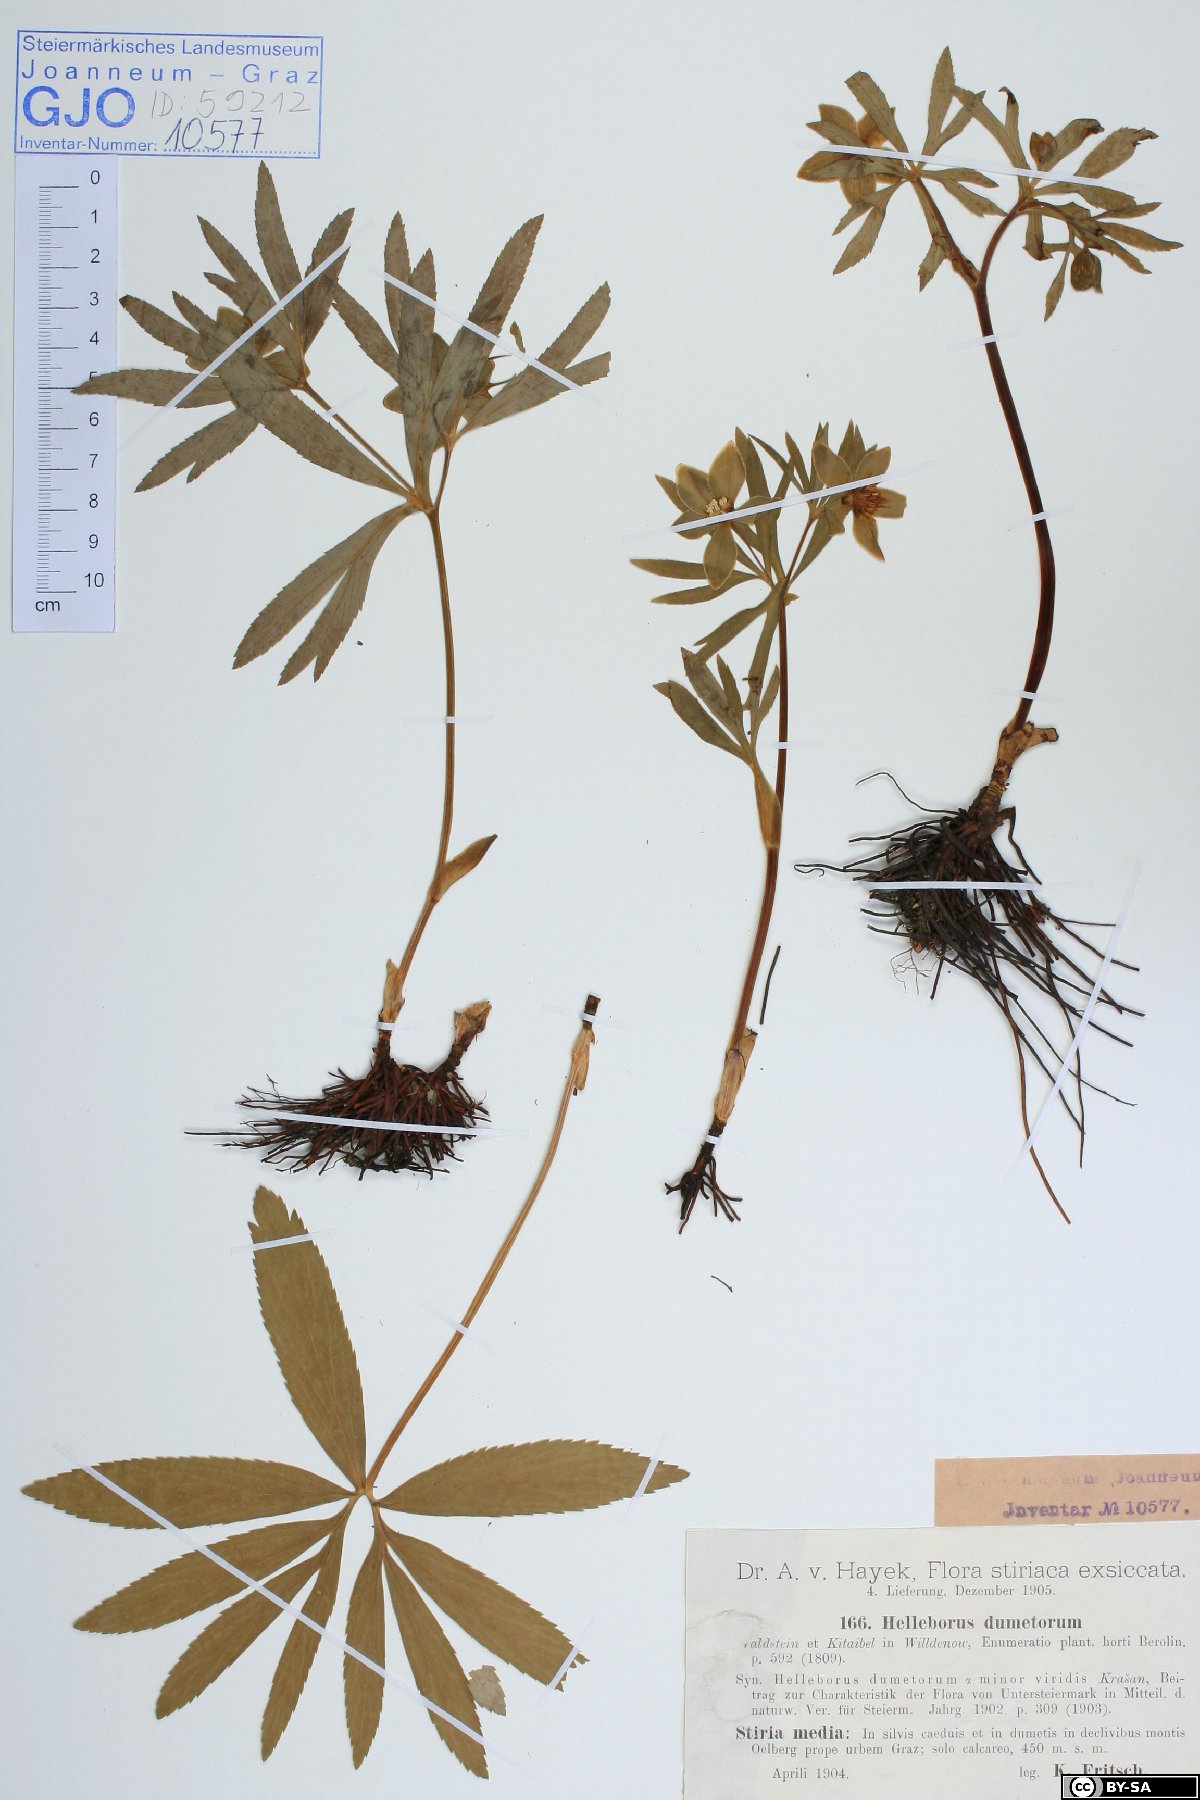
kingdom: Plantae
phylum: Tracheophyta
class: Magnoliopsida
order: Ranunculales
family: Ranunculaceae
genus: Helleborus
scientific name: Helleborus dumetorum
